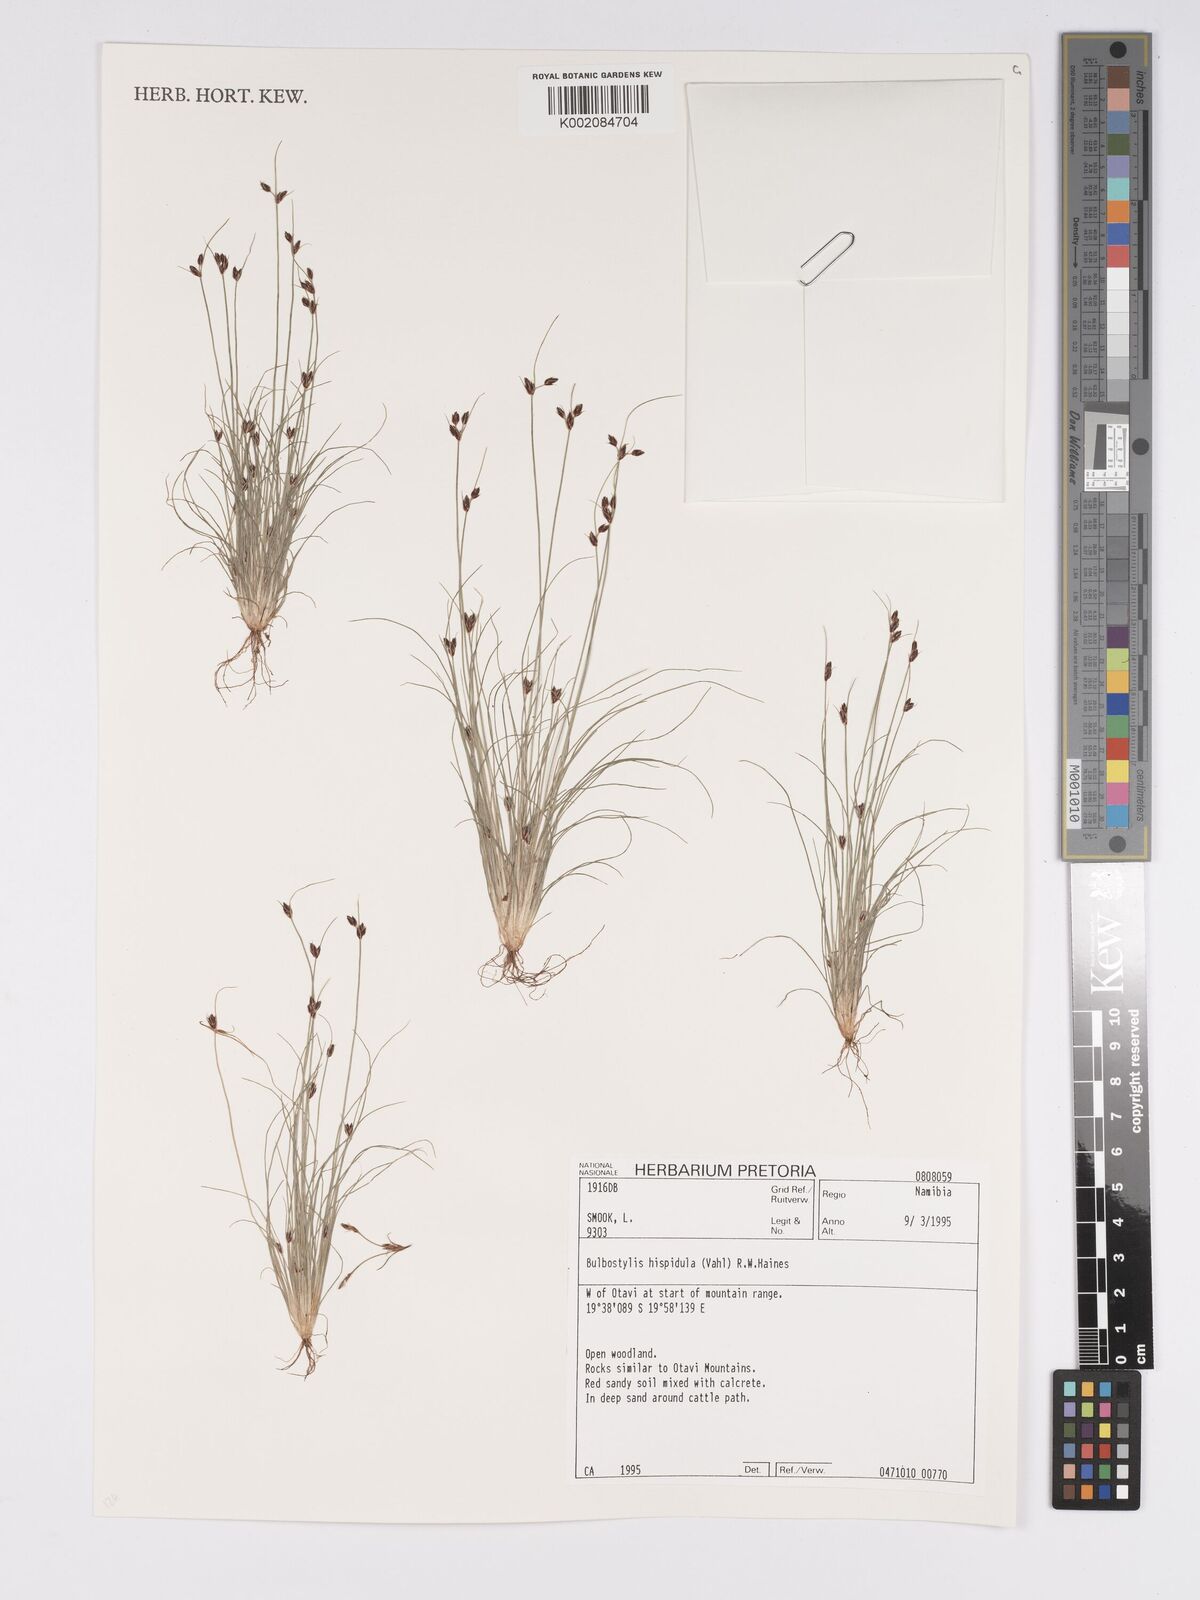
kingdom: Plantae
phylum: Tracheophyta
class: Liliopsida
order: Poales
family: Cyperaceae
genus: Bulbostylis
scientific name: Bulbostylis hispidula
